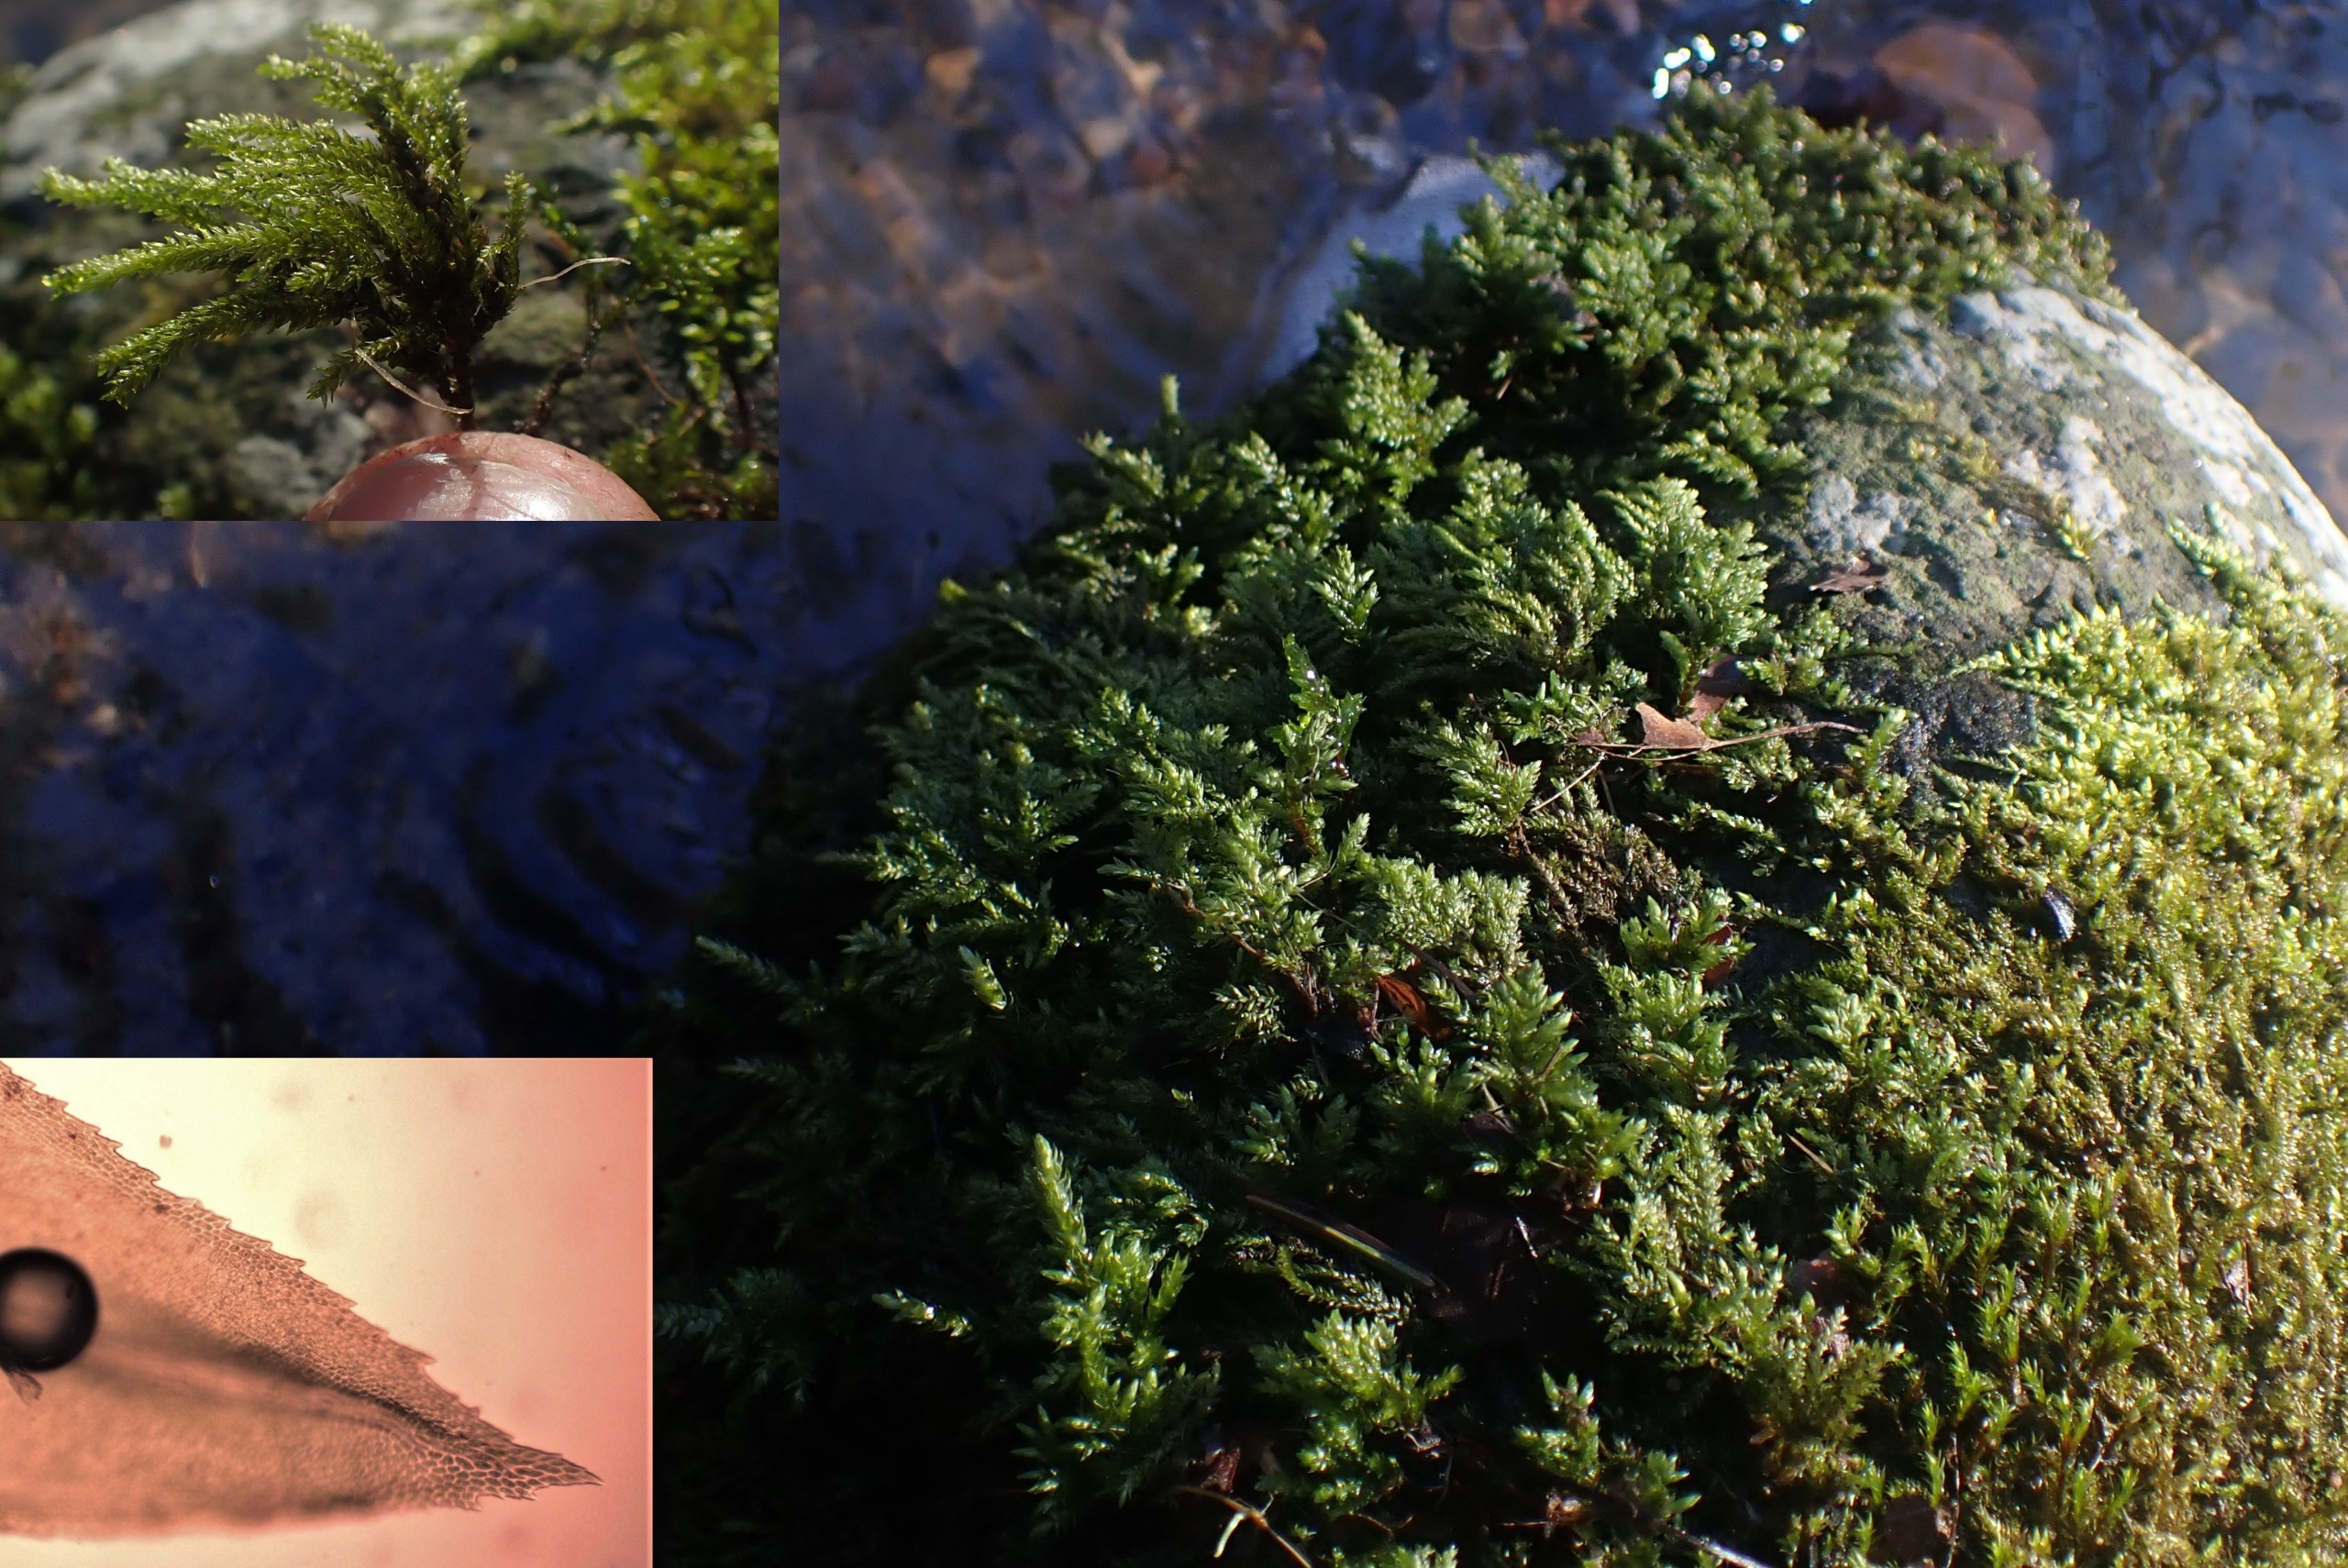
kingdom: Plantae
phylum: Bryophyta
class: Bryopsida
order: Hypnales
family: Neckeraceae
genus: Thamnobryum
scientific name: Thamnobryum alopecurum
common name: Mat bækkost
